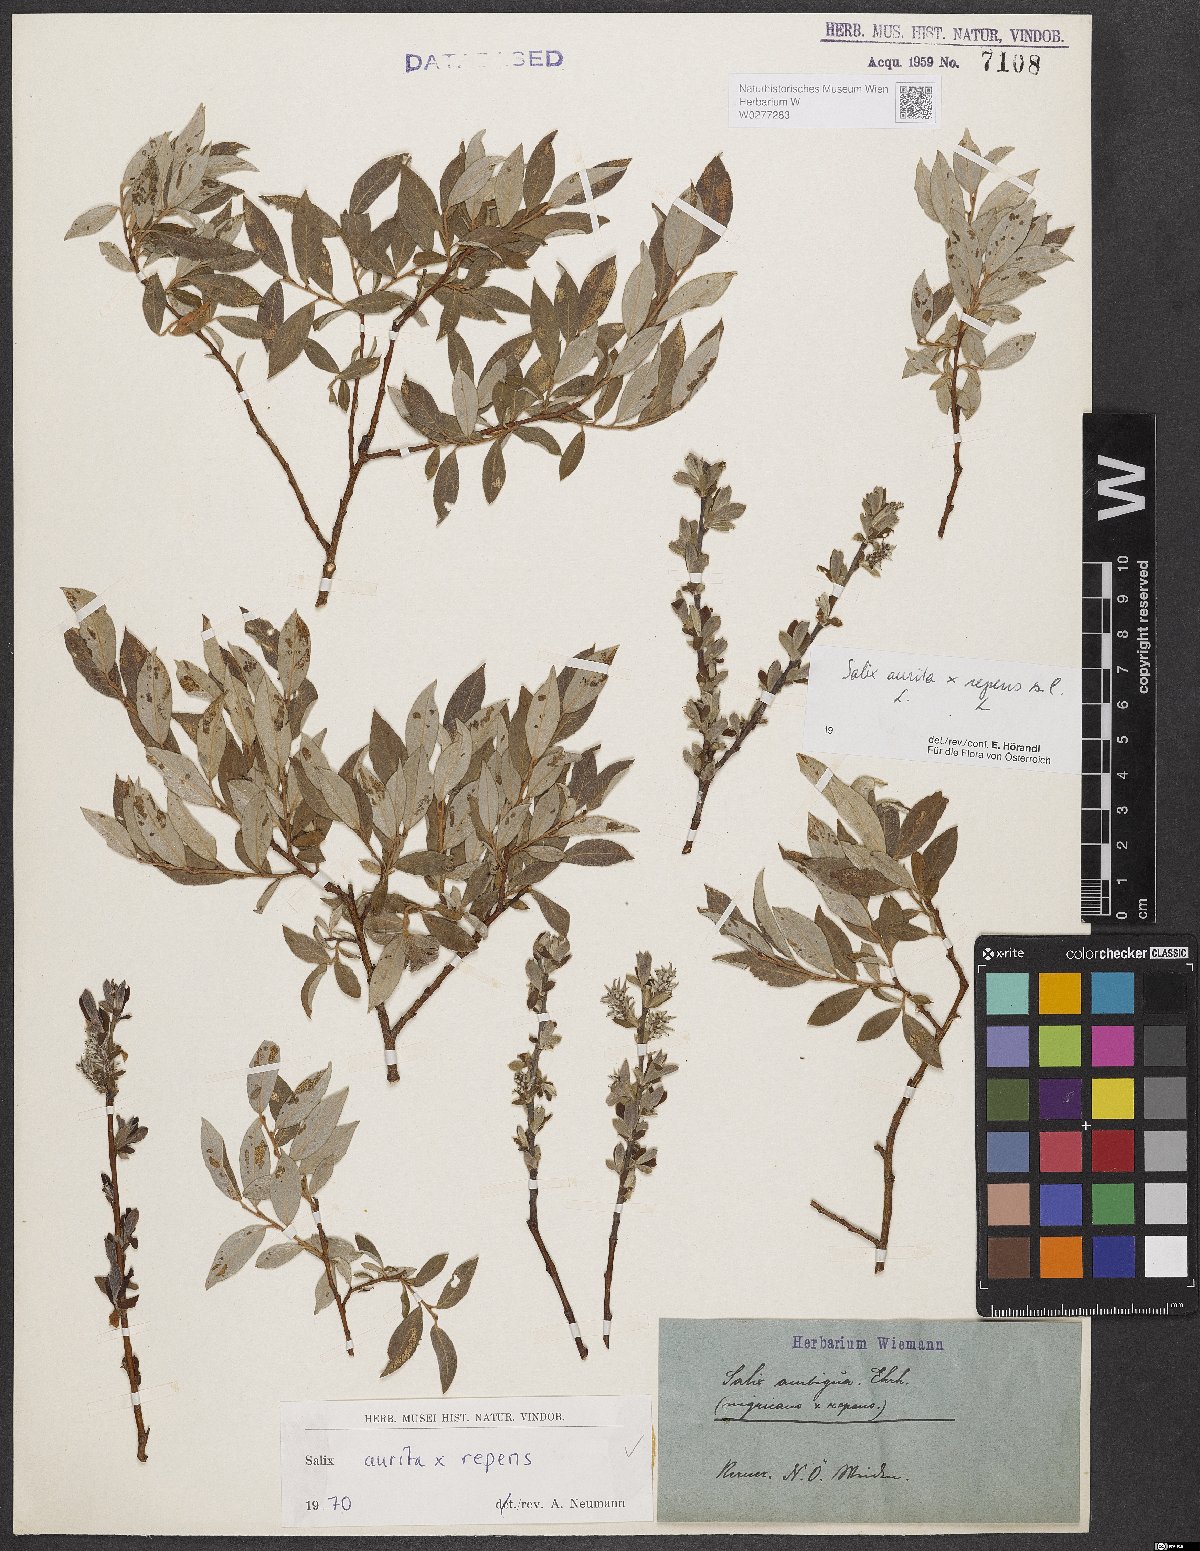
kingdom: Plantae
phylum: Tracheophyta
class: Magnoliopsida
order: Malpighiales
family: Salicaceae
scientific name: Salicaceae
